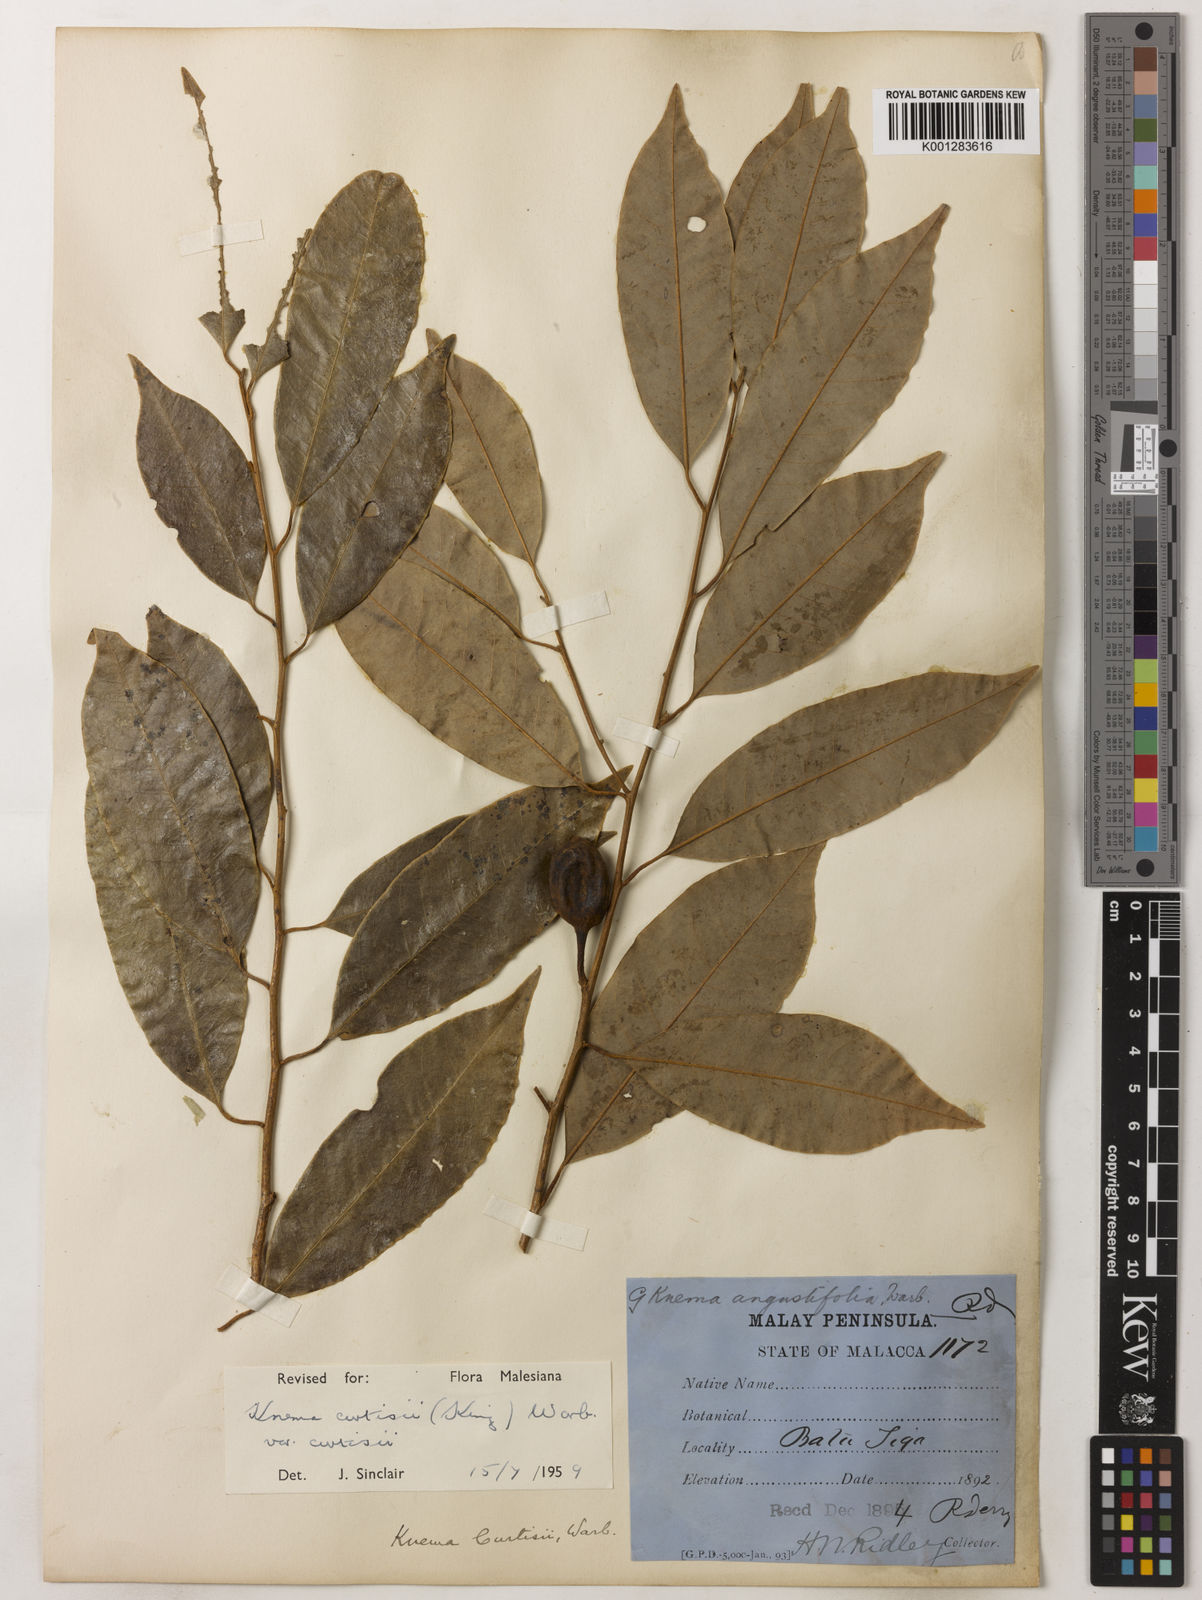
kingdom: Plantae
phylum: Tracheophyta
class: Magnoliopsida
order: Magnoliales
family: Myristicaceae
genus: Knema
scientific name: Knema curtisii
